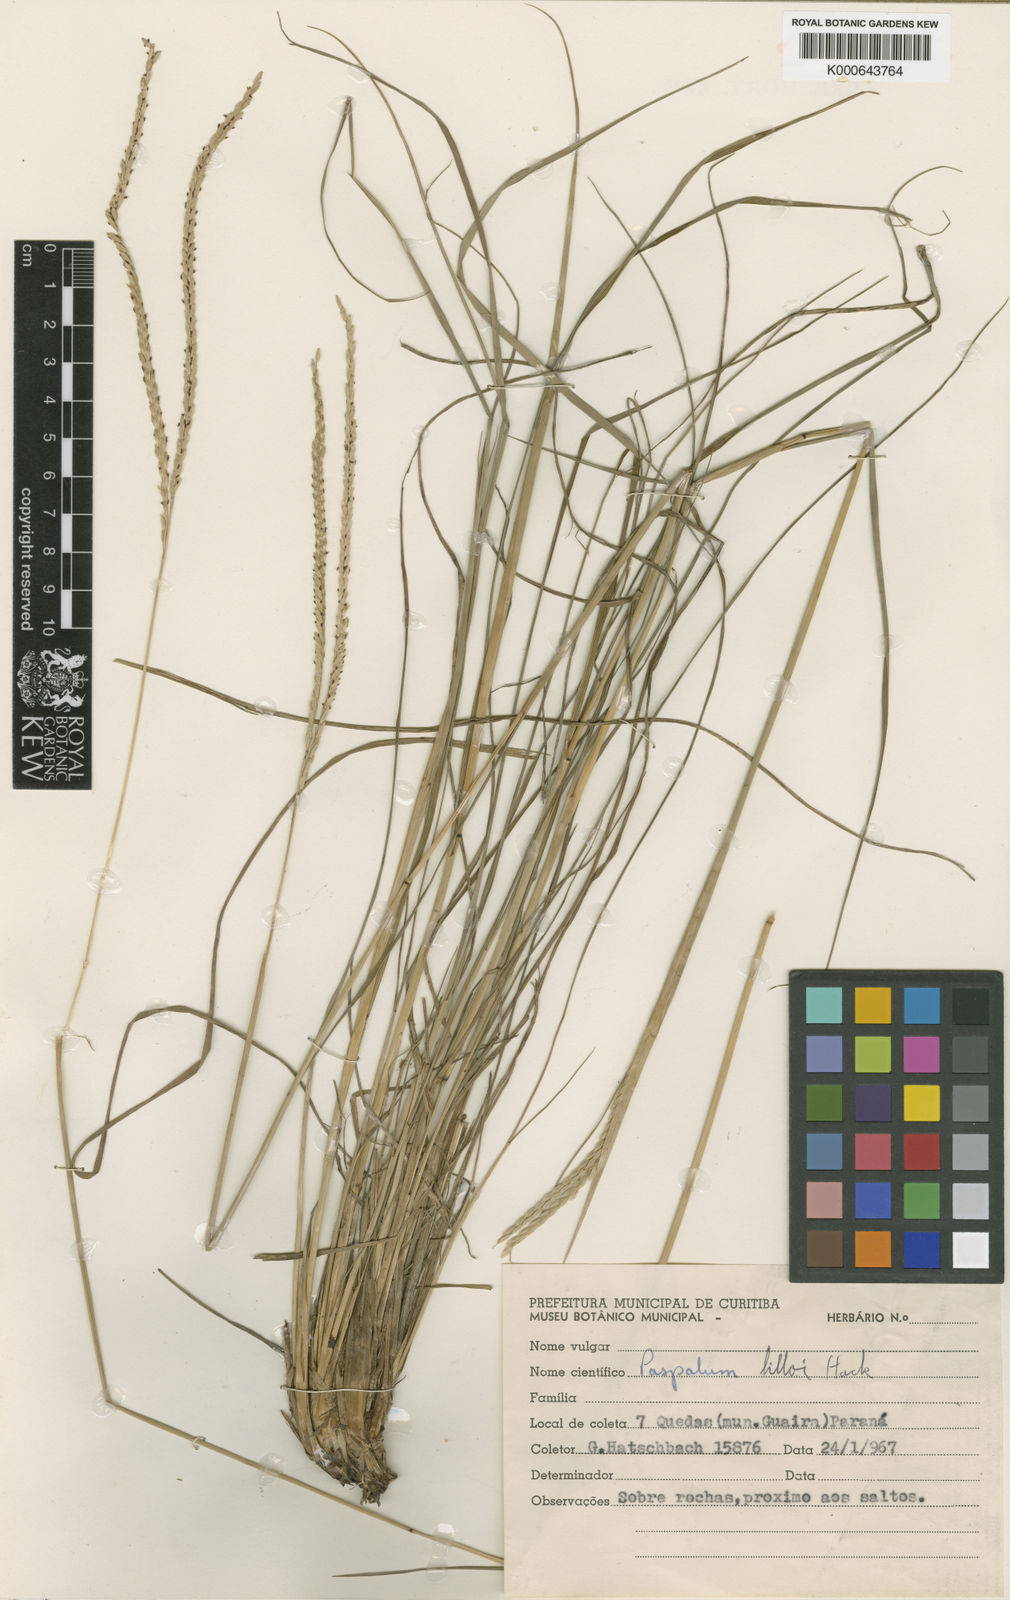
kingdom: Plantae
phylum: Tracheophyta
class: Liliopsida
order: Poales
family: Poaceae
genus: Paspalum
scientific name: Paspalum bertonii
